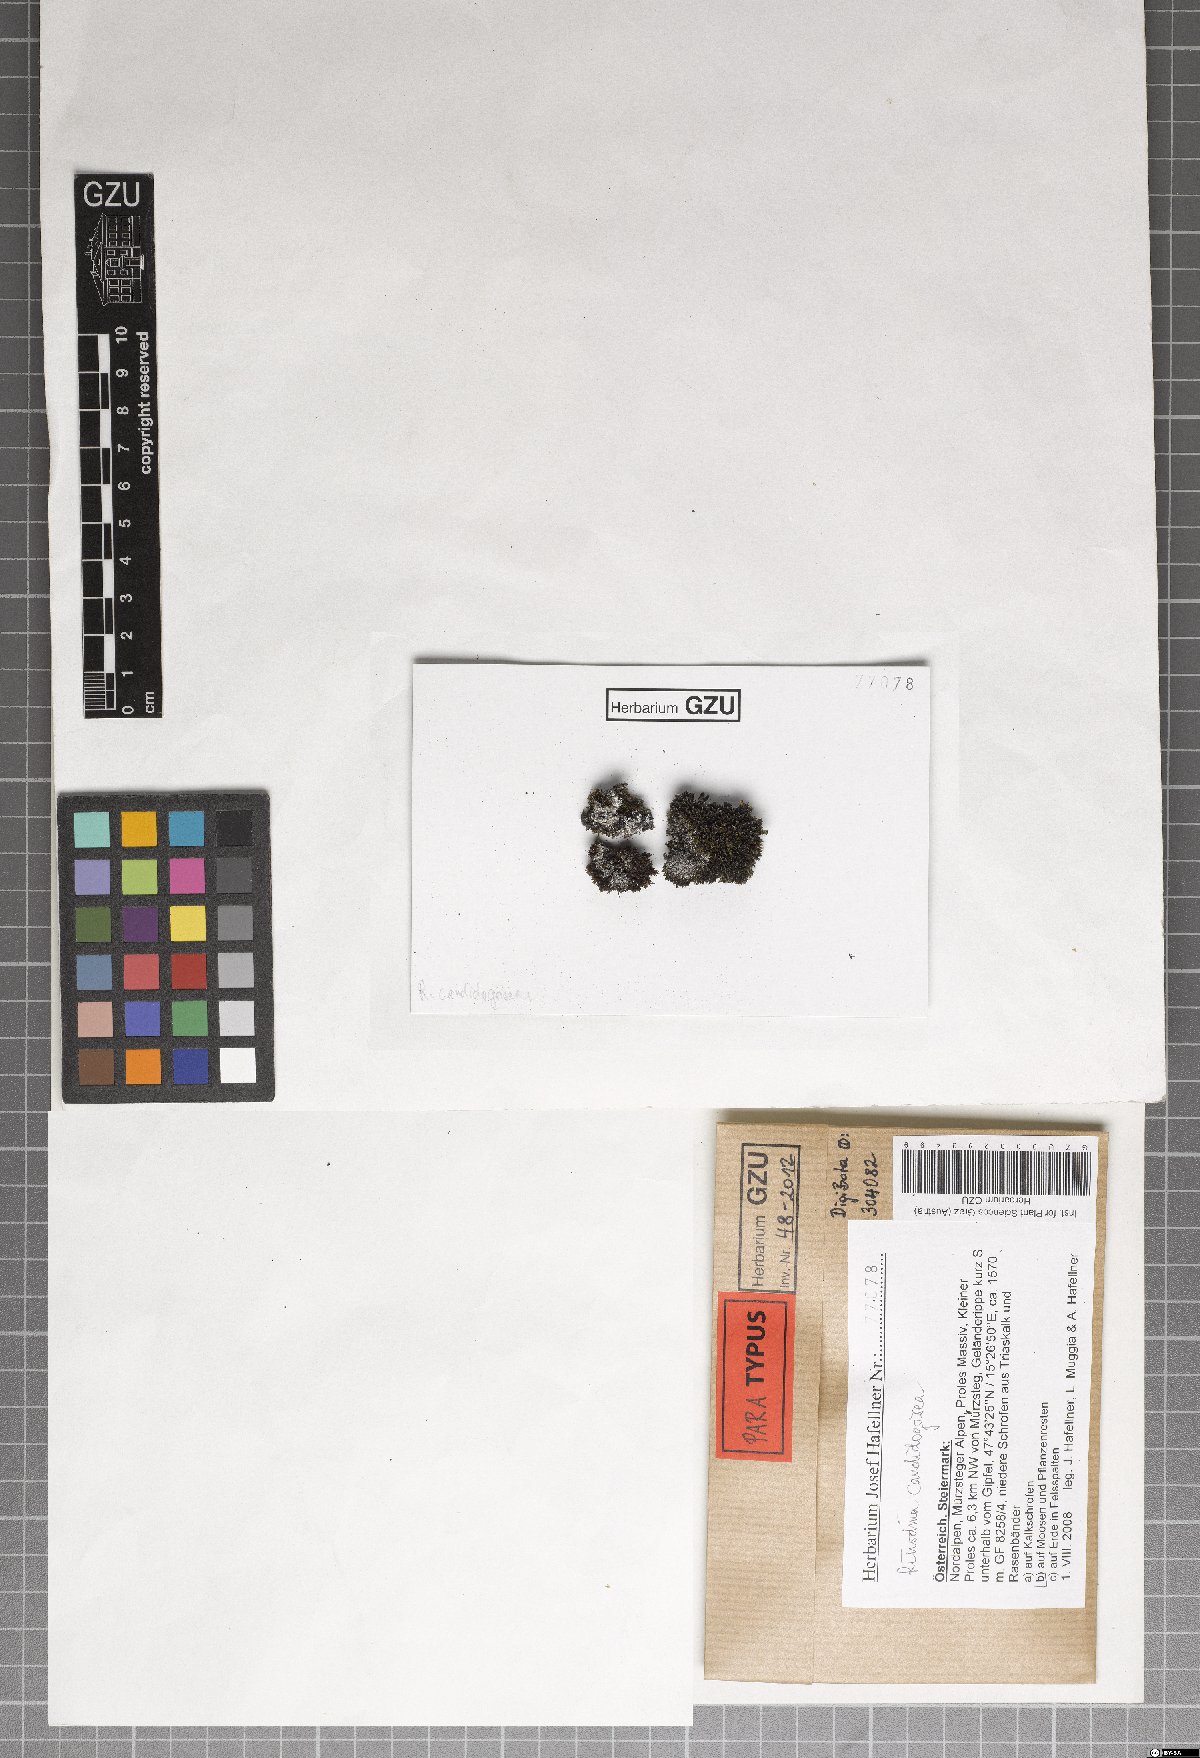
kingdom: Fungi
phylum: Ascomycota
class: Lecanoromycetes
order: Caliciales
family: Physciaceae
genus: Kudratovia
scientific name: Kudratovia candidogrisea
